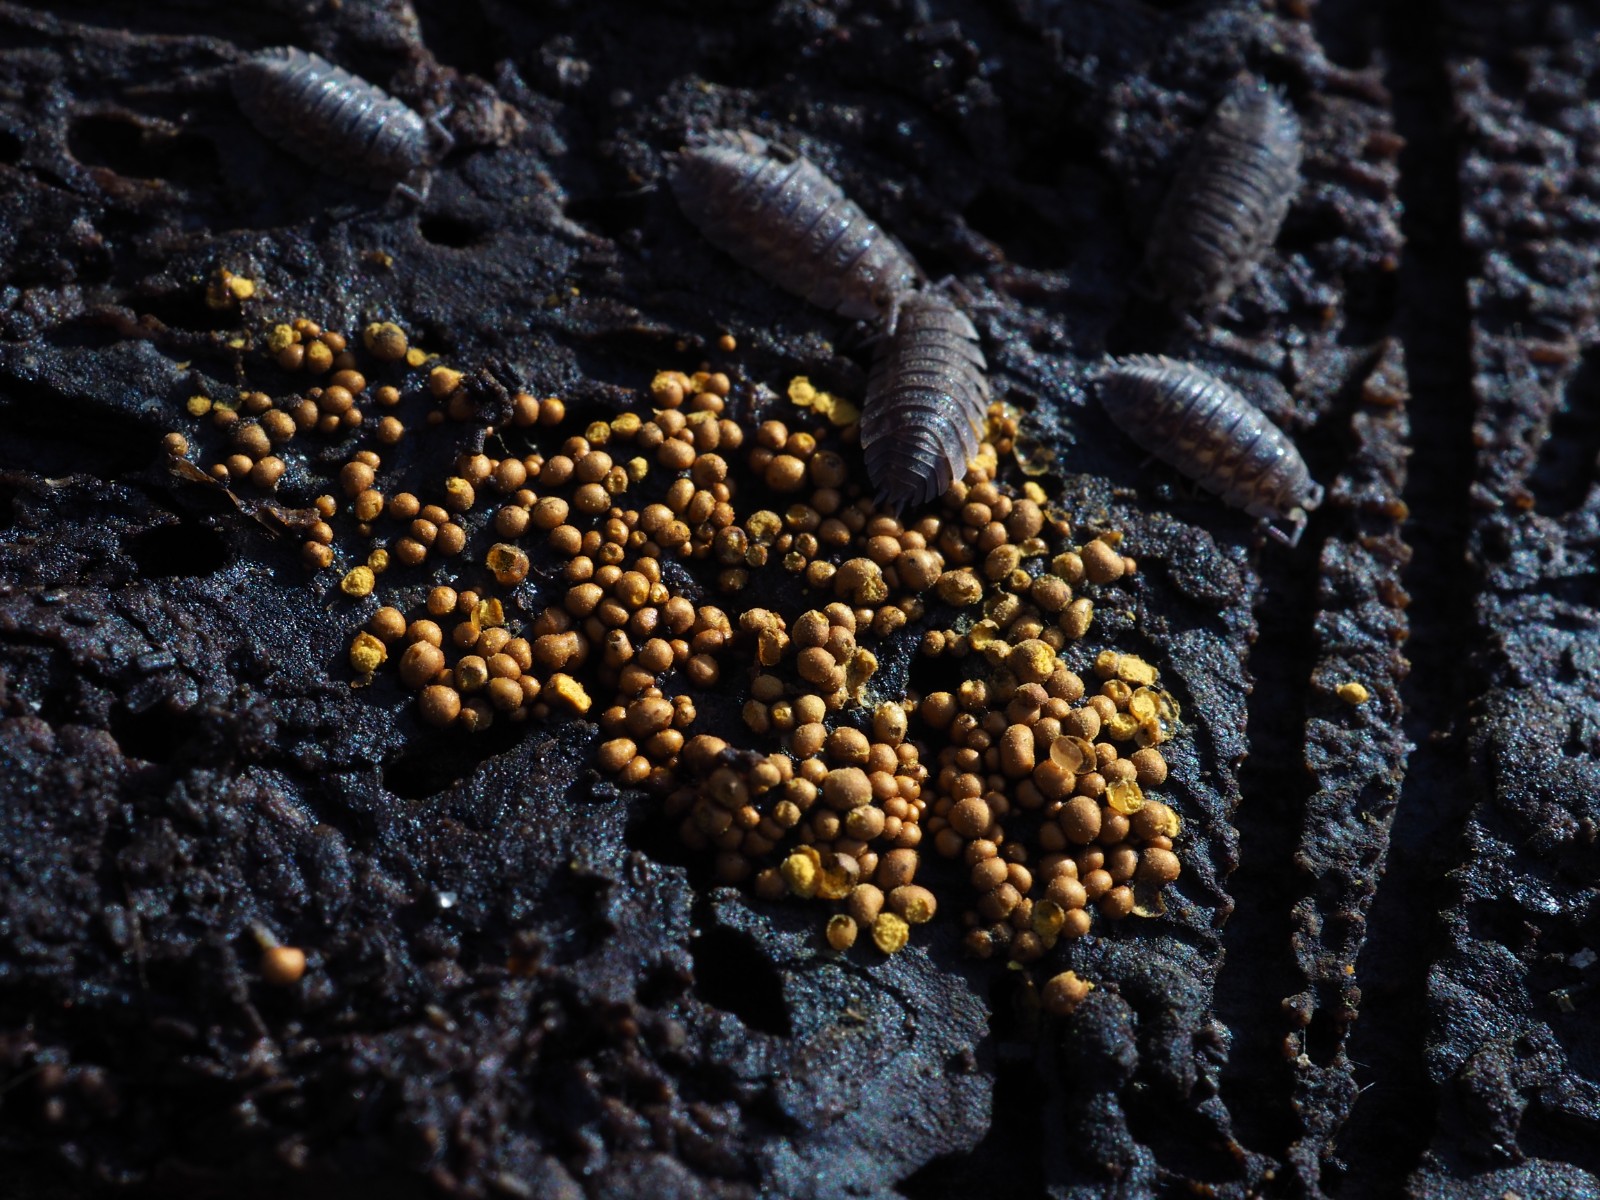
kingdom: Protozoa
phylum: Mycetozoa
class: Myxomycetes
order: Trichiales
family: Trichiaceae
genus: Perichaena
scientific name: Perichaena corticalis
